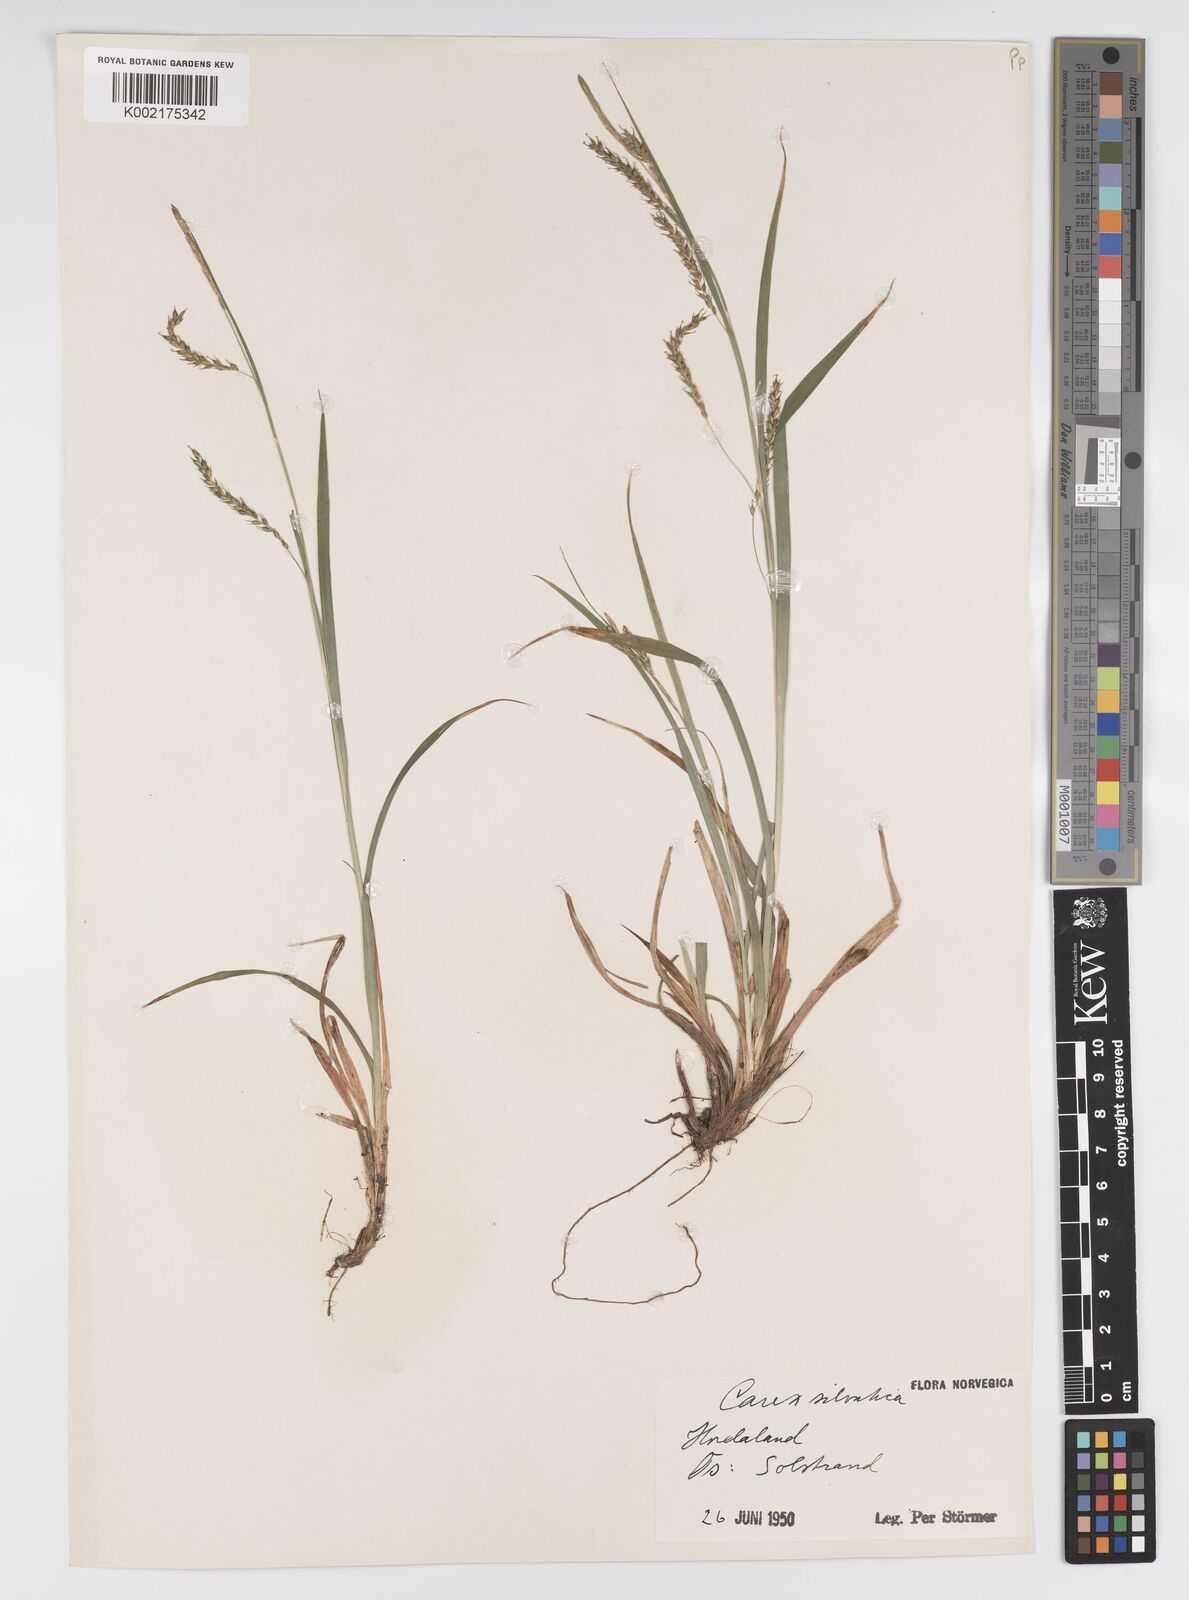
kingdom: Plantae
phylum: Tracheophyta
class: Liliopsida
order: Poales
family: Cyperaceae
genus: Carex
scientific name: Carex sylvatica
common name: Wood-sedge
